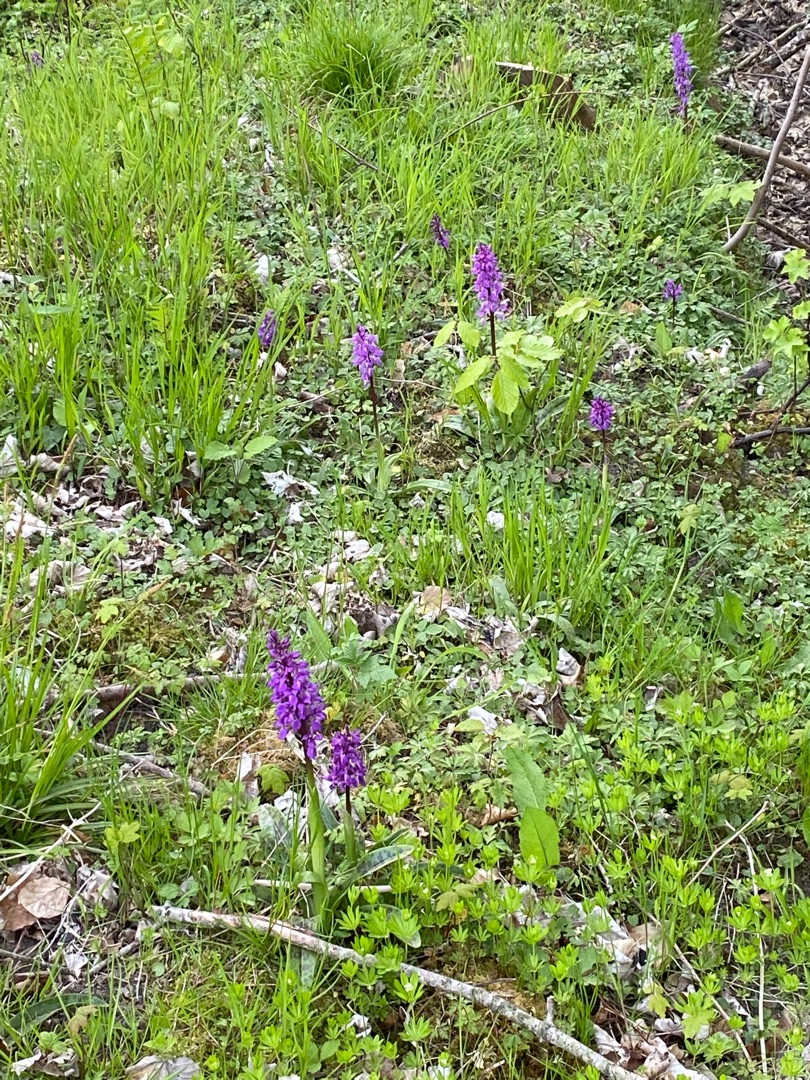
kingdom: Plantae
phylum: Tracheophyta
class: Liliopsida
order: Asparagales
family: Orchidaceae
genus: Orchis
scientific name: Orchis mascula
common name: Tyndakset gøgeurt
